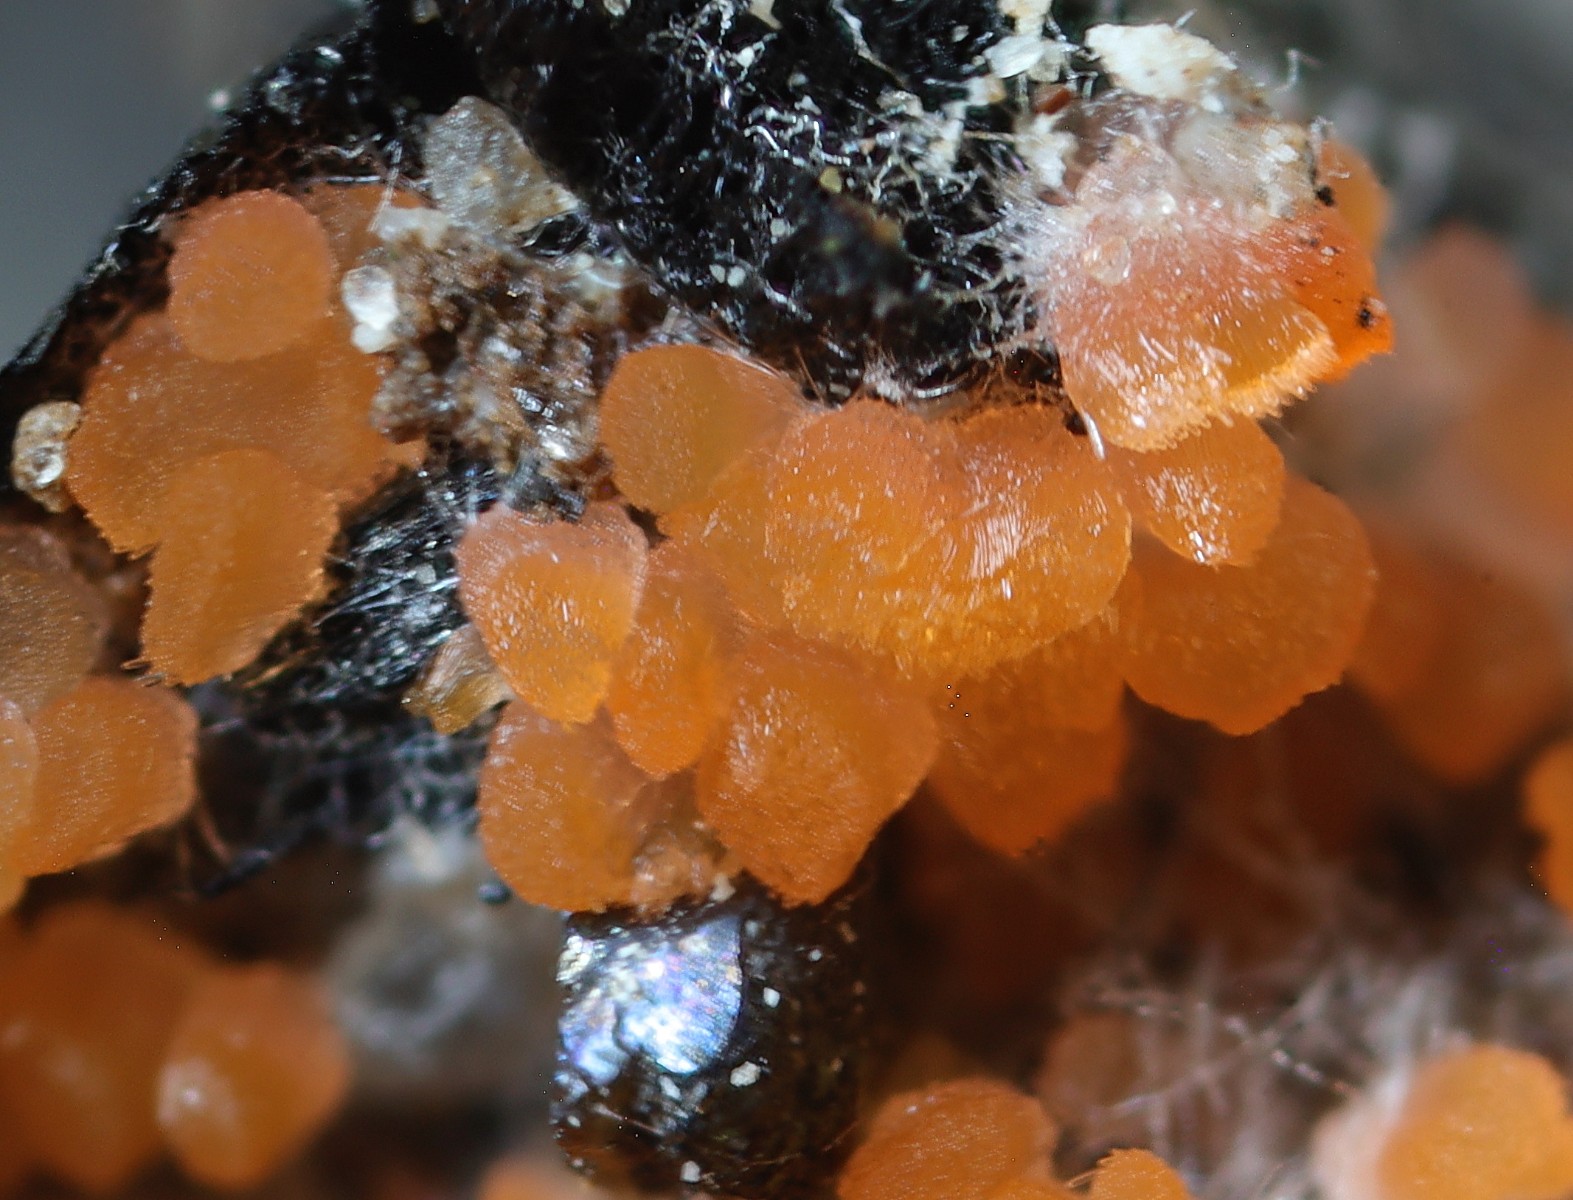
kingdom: Fungi
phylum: Ascomycota
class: Pezizomycetes
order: Pezizales
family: Pezizaceae
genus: Iodophanus
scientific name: Iodophanus
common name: prikbæger
